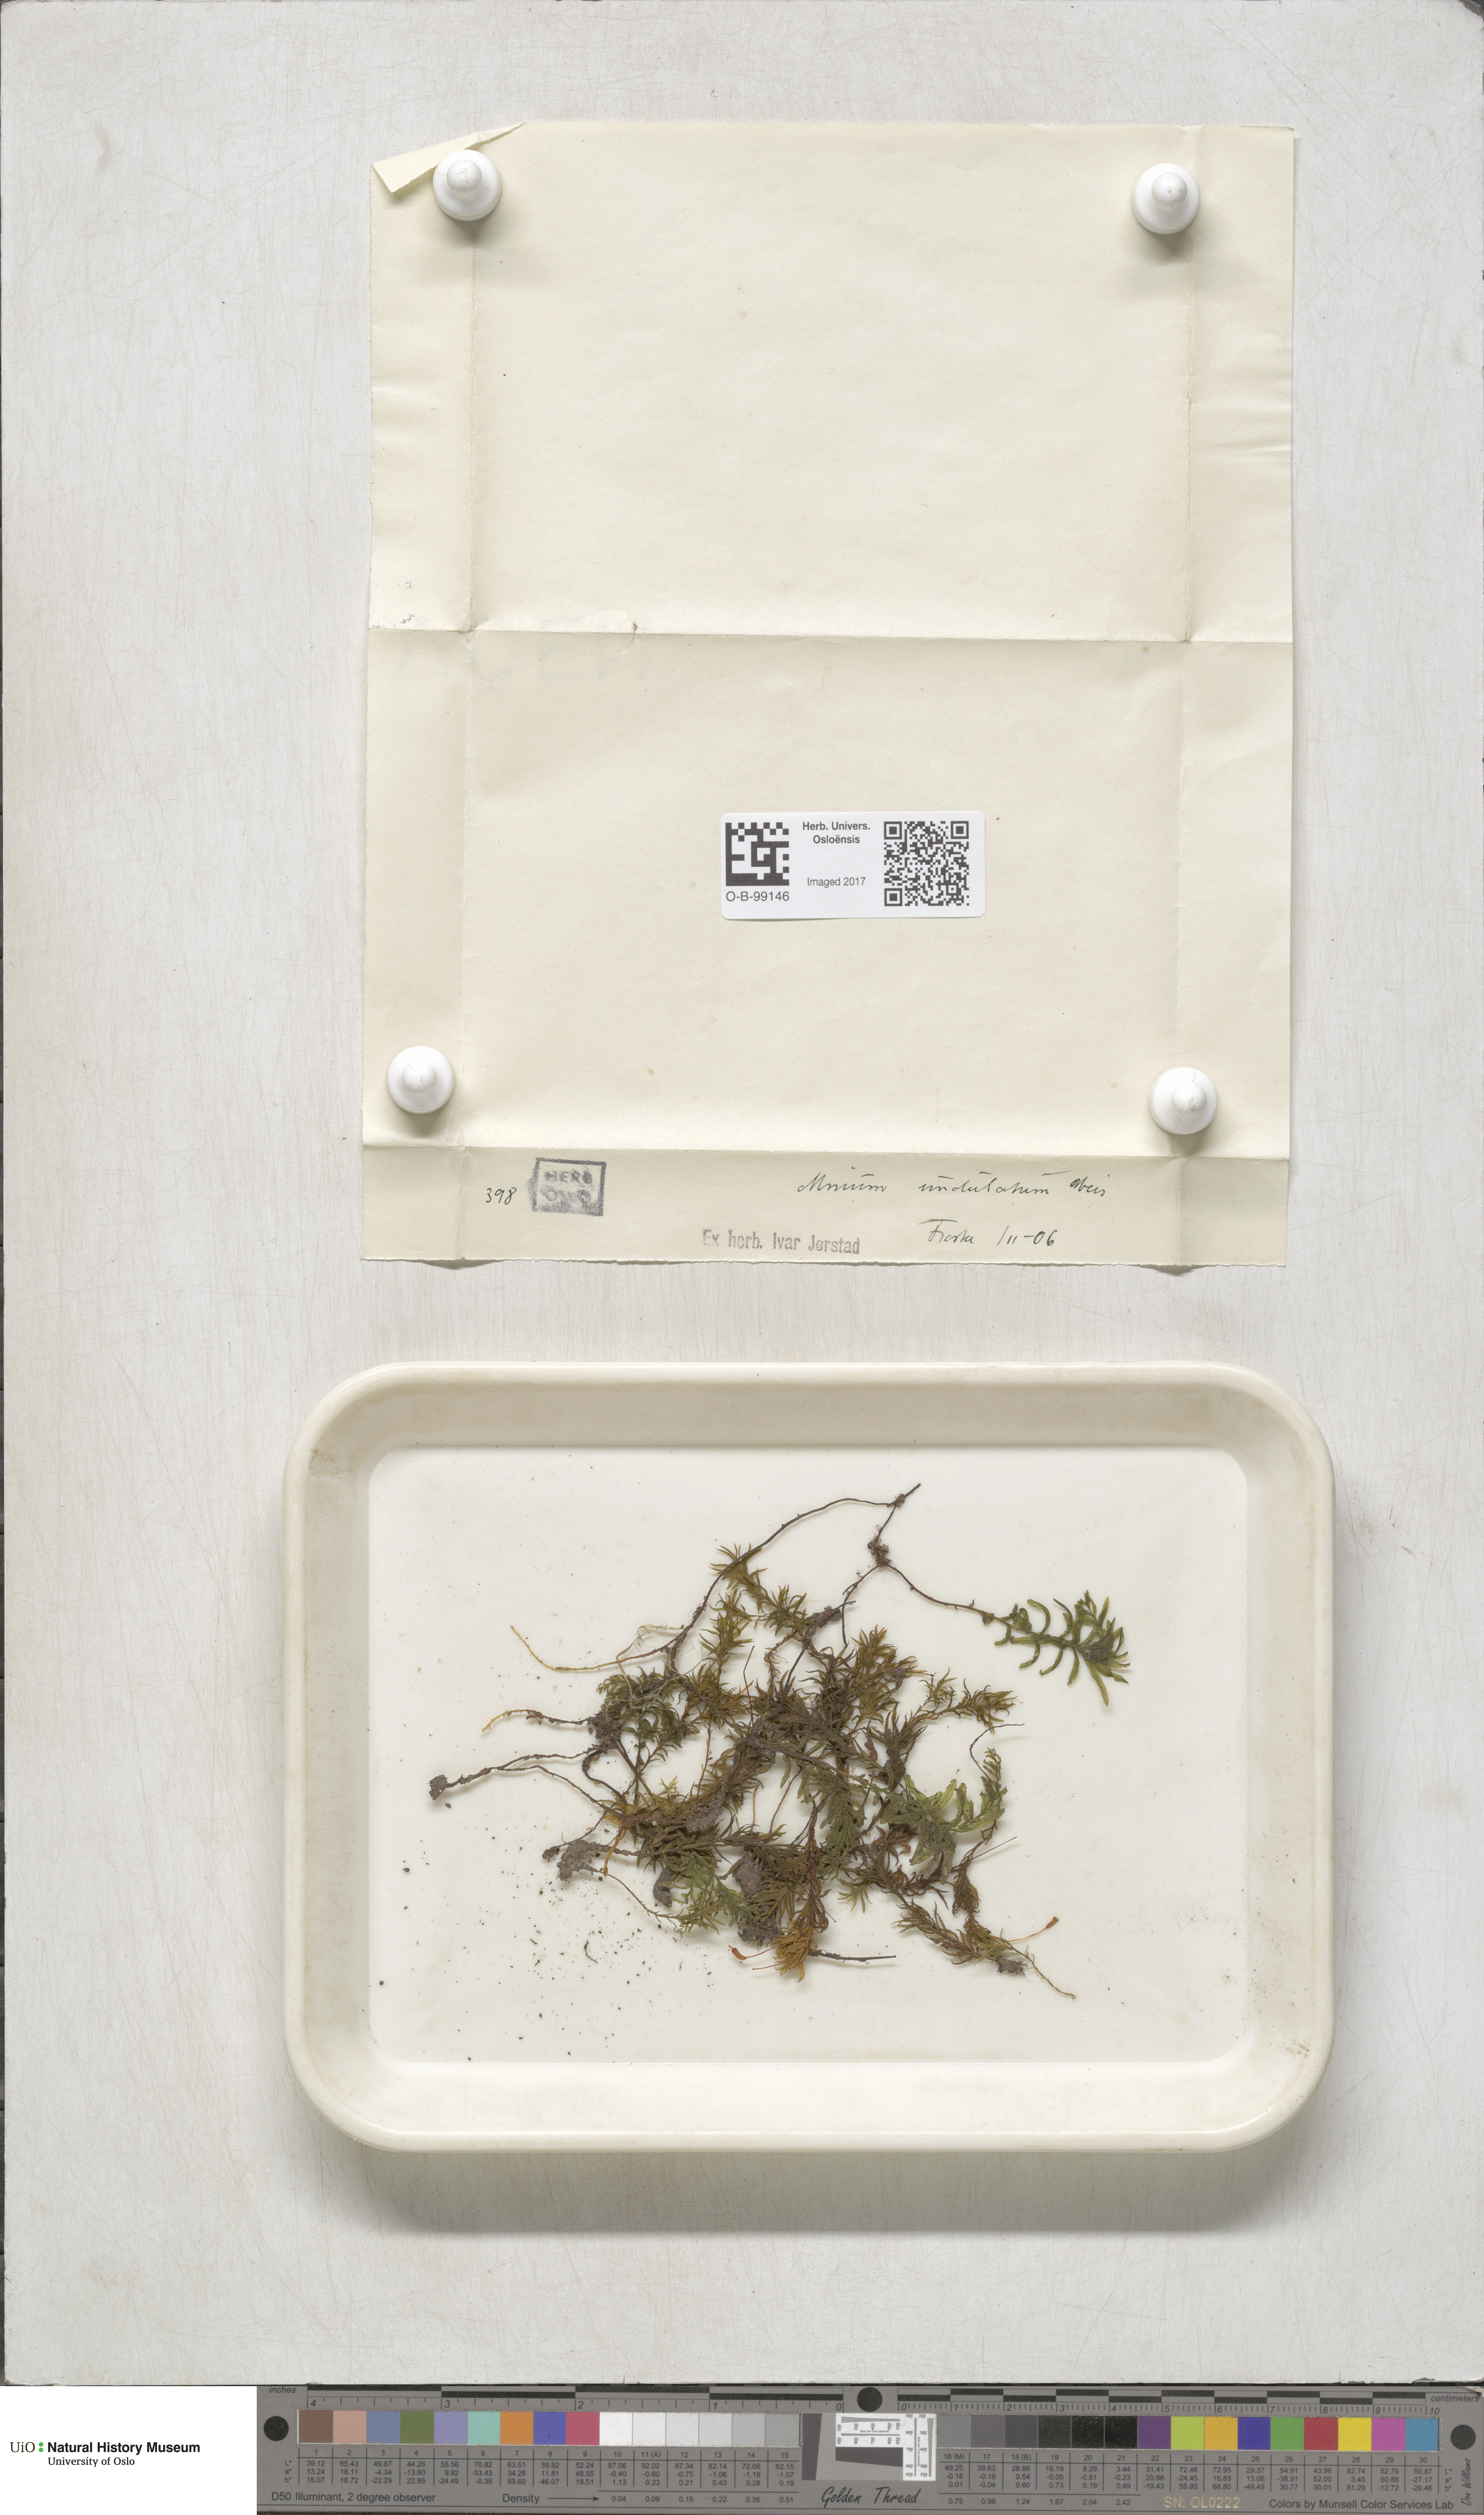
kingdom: Plantae
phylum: Bryophyta
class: Bryopsida
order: Bryales
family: Mniaceae
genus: Plagiomnium
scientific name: Plagiomnium undulatum
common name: Hart's-tongue thyme-moss
